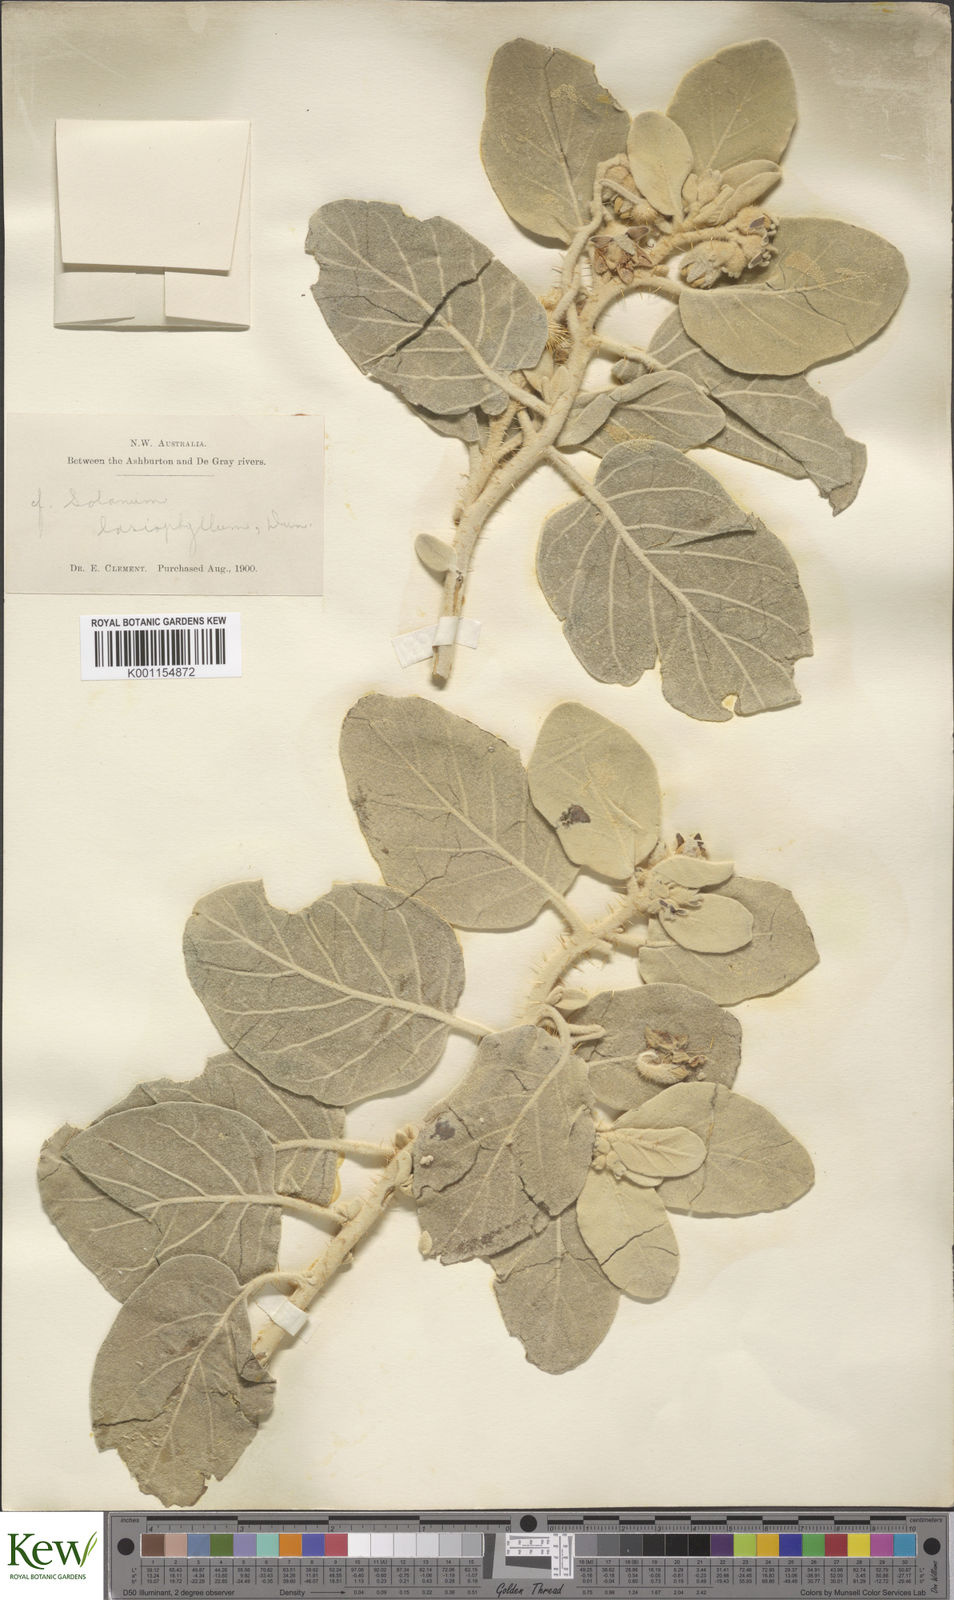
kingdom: Plantae
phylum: Tracheophyta
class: Magnoliopsida
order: Solanales
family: Solanaceae
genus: Solanum
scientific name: Solanum lasiophyllum
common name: Flannelbush
